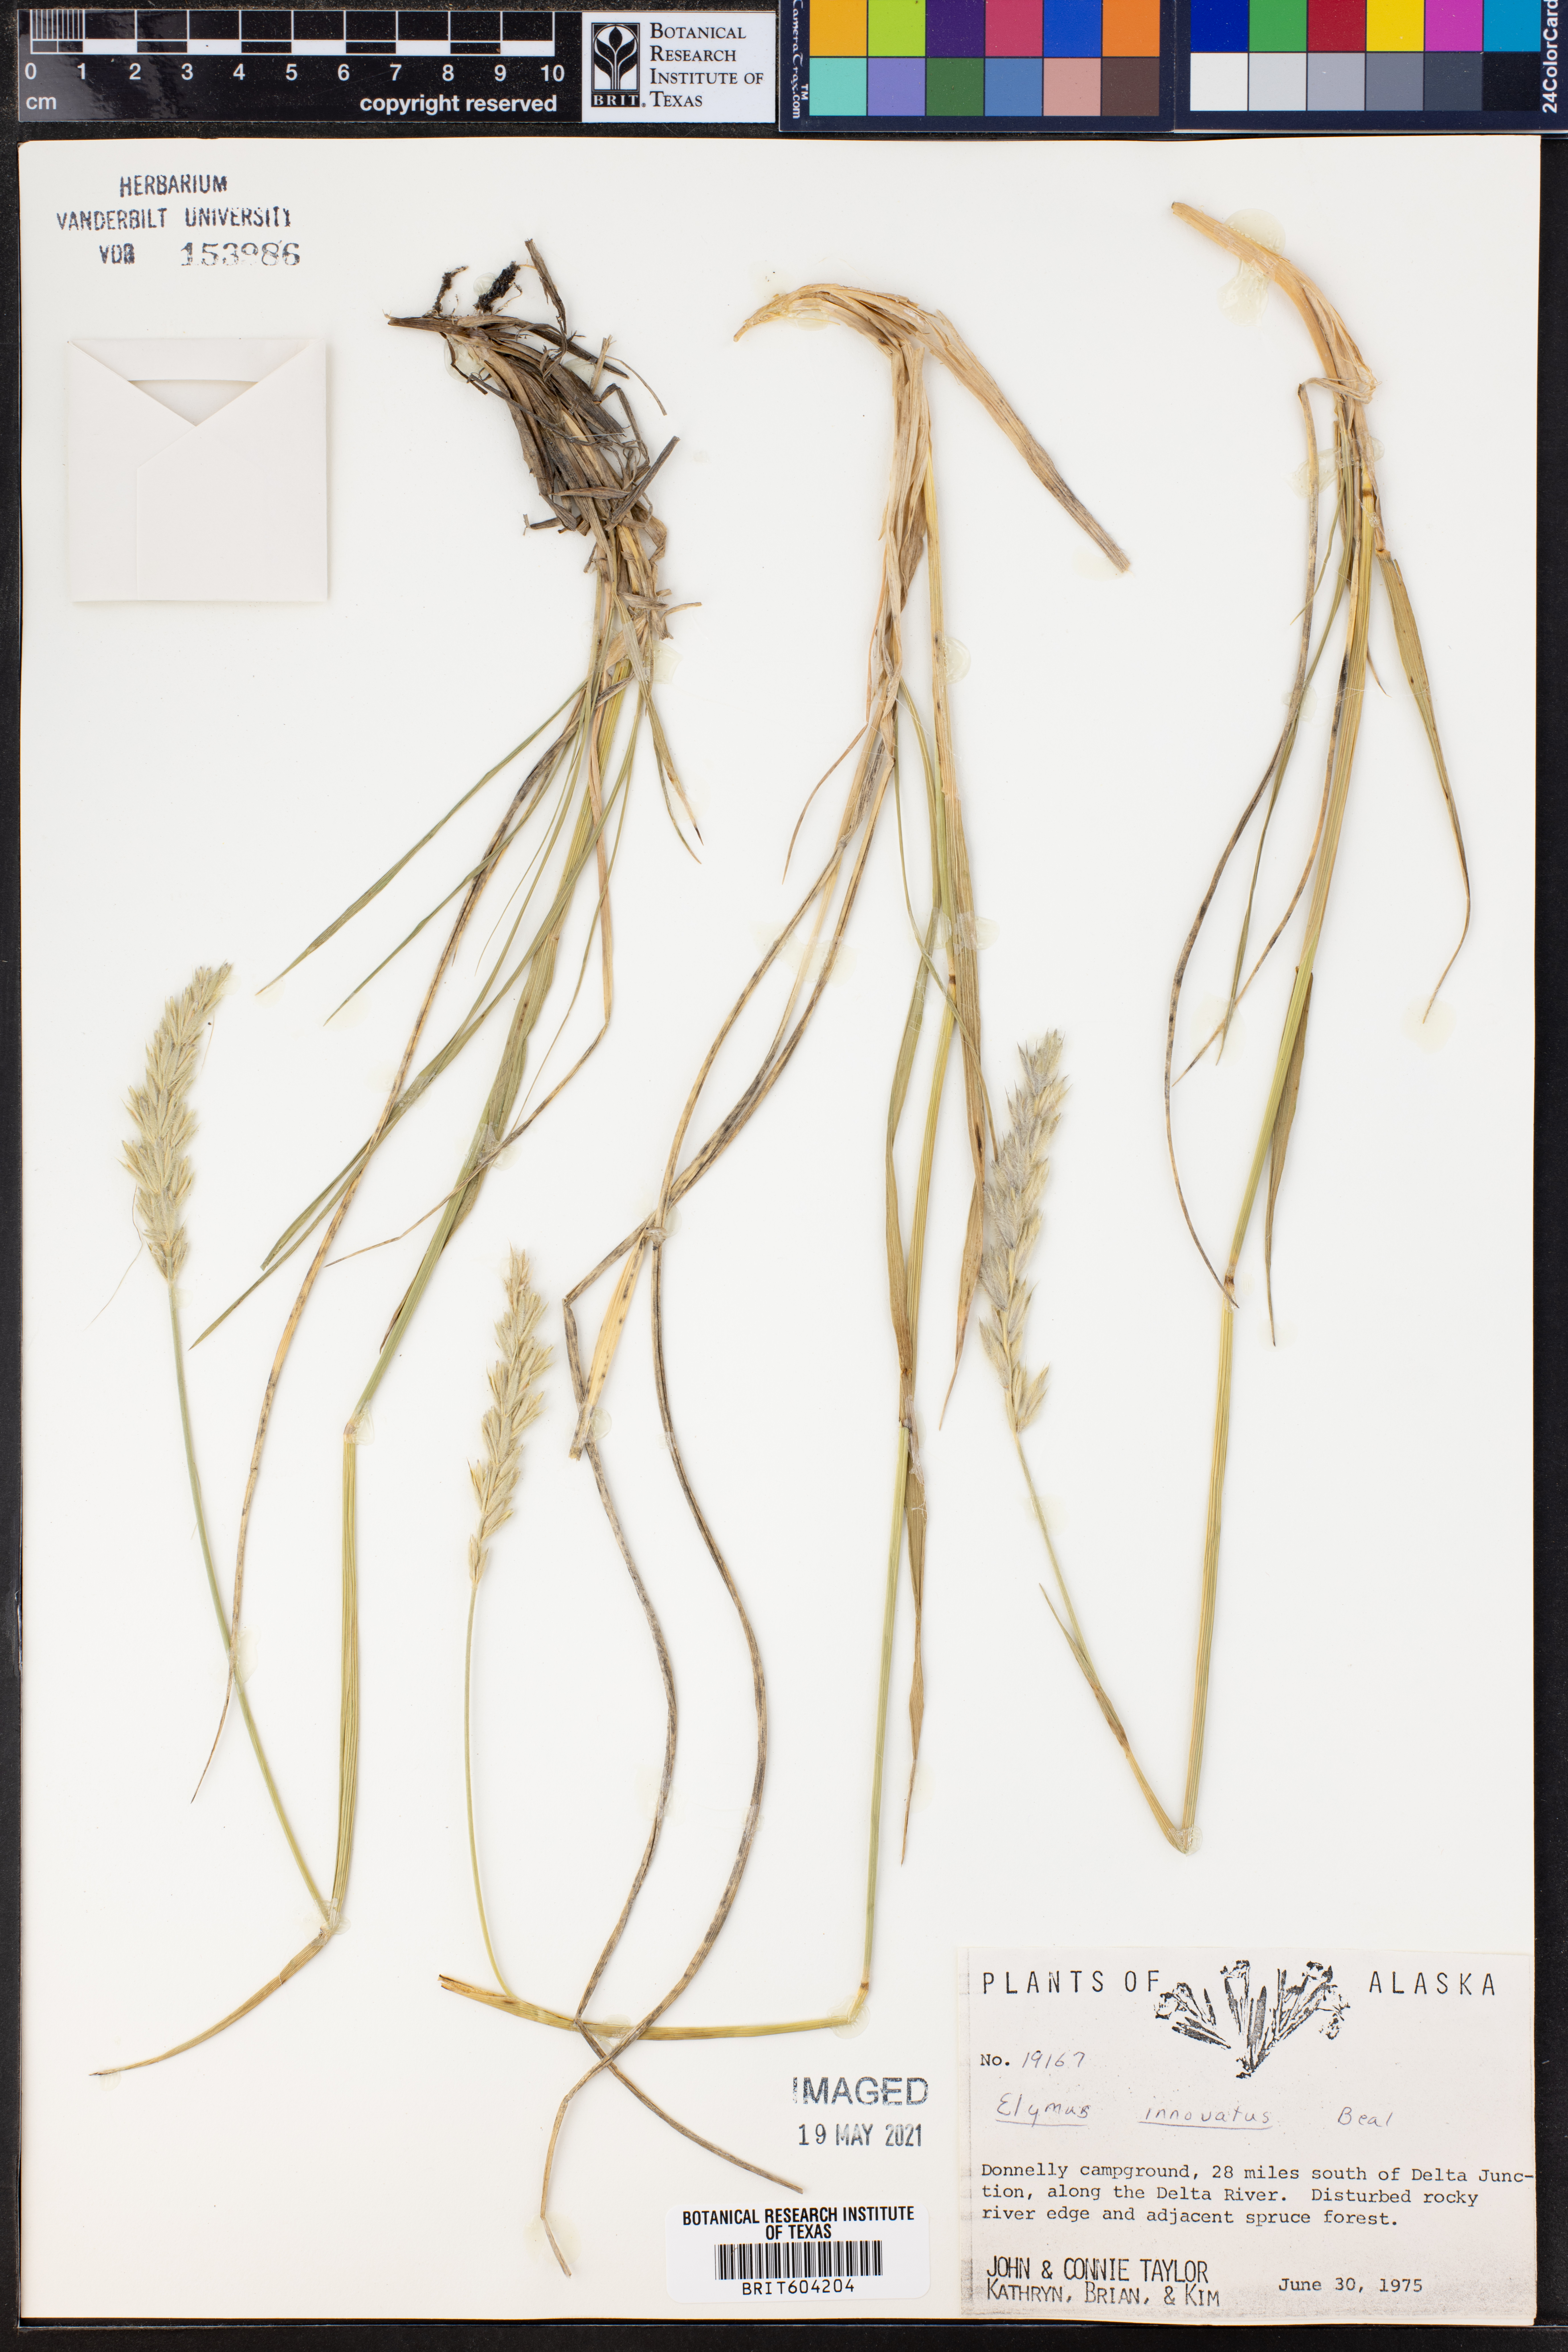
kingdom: Plantae
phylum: Tracheophyta
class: Liliopsida
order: Poales
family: Poaceae
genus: Leymus
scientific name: Leymus innovatus
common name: Boreal wild rye
